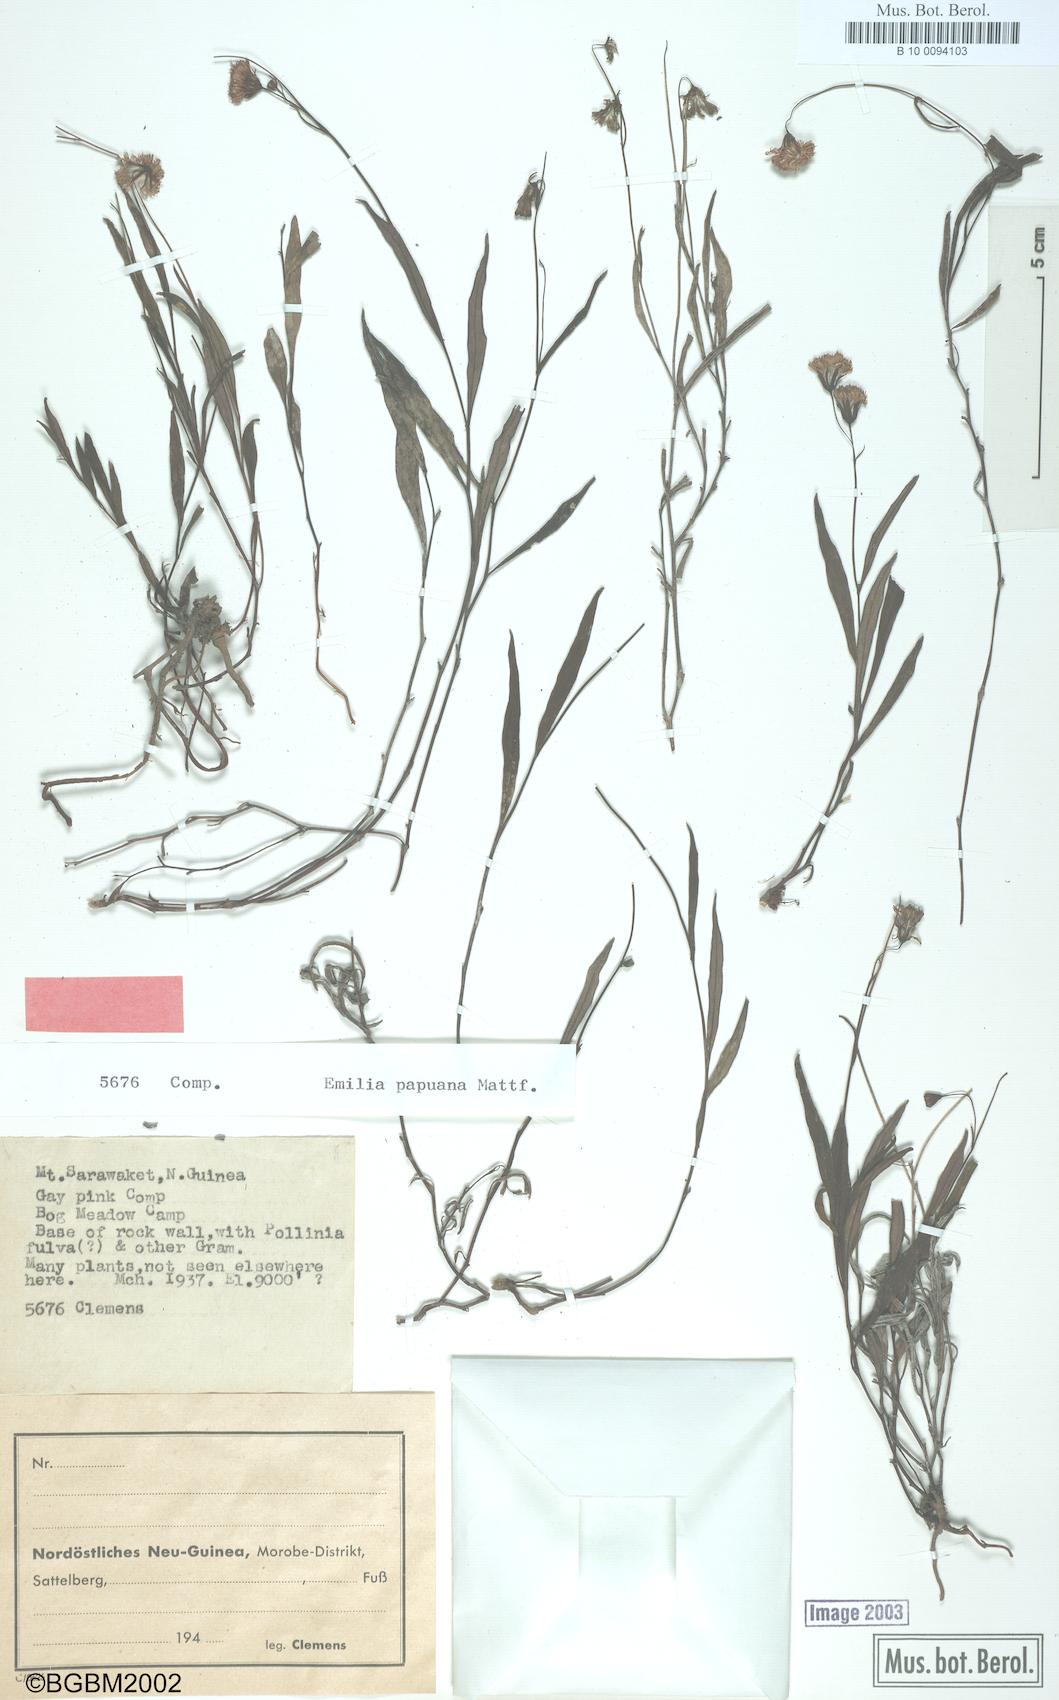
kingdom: Plantae
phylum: Tracheophyta
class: Magnoliopsida
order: Asterales
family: Asteraceae
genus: Emilia
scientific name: Emilia papuana
